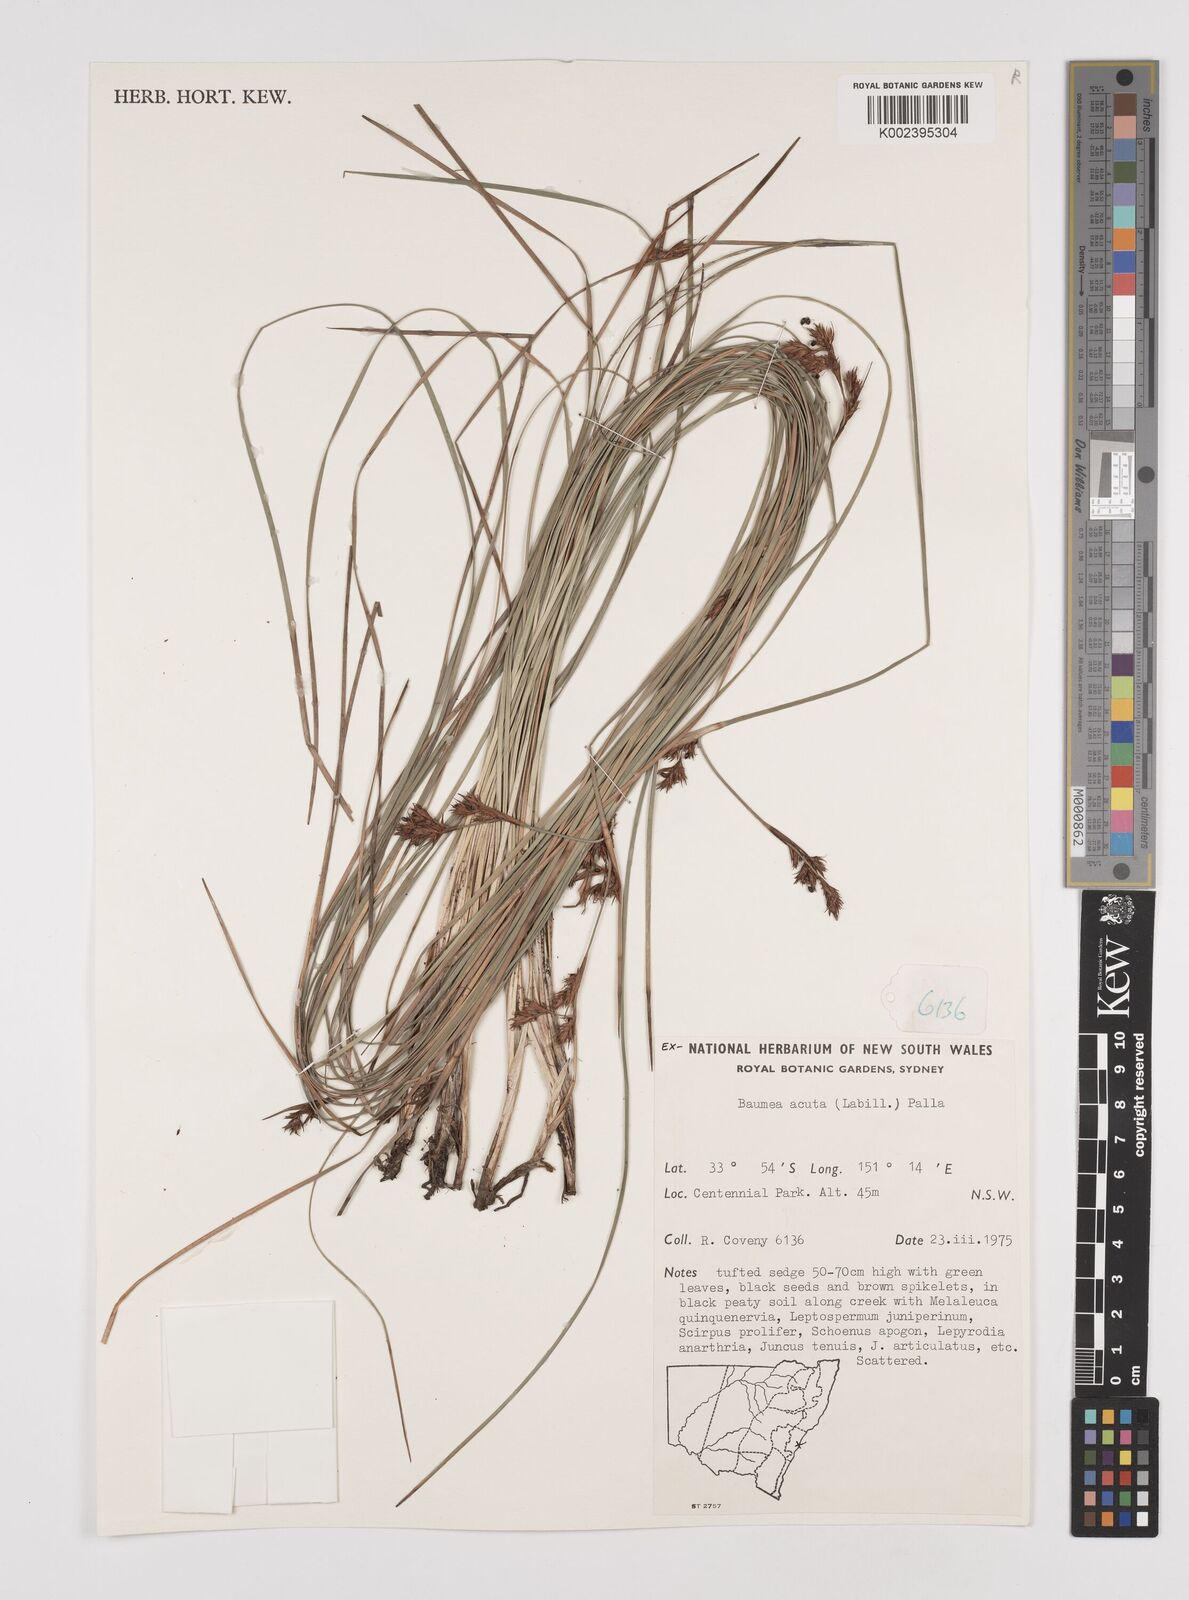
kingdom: Plantae
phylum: Tracheophyta
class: Liliopsida
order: Poales
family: Cyperaceae
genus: Machaerina
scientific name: Machaerina acuta
